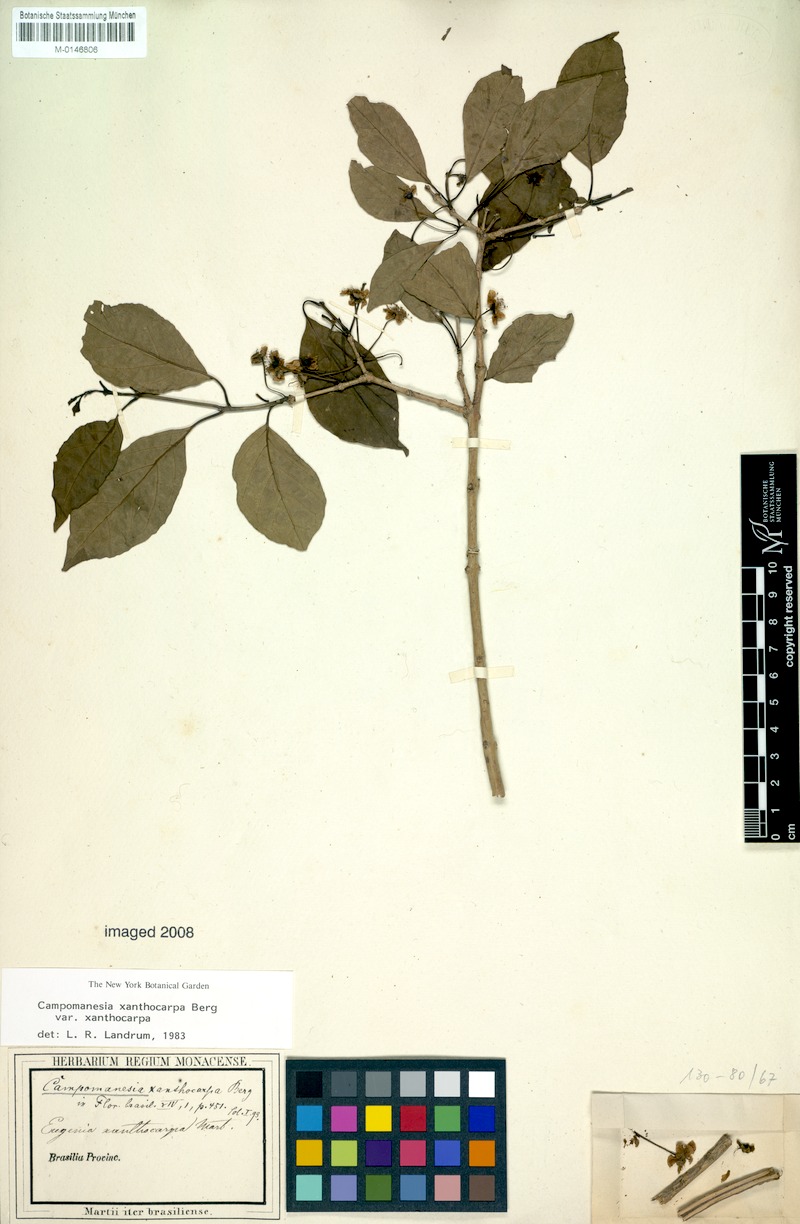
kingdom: Plantae
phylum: Tracheophyta
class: Magnoliopsida
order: Myrtales
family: Myrtaceae
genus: Campomanesia
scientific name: Campomanesia xanthocarpa
